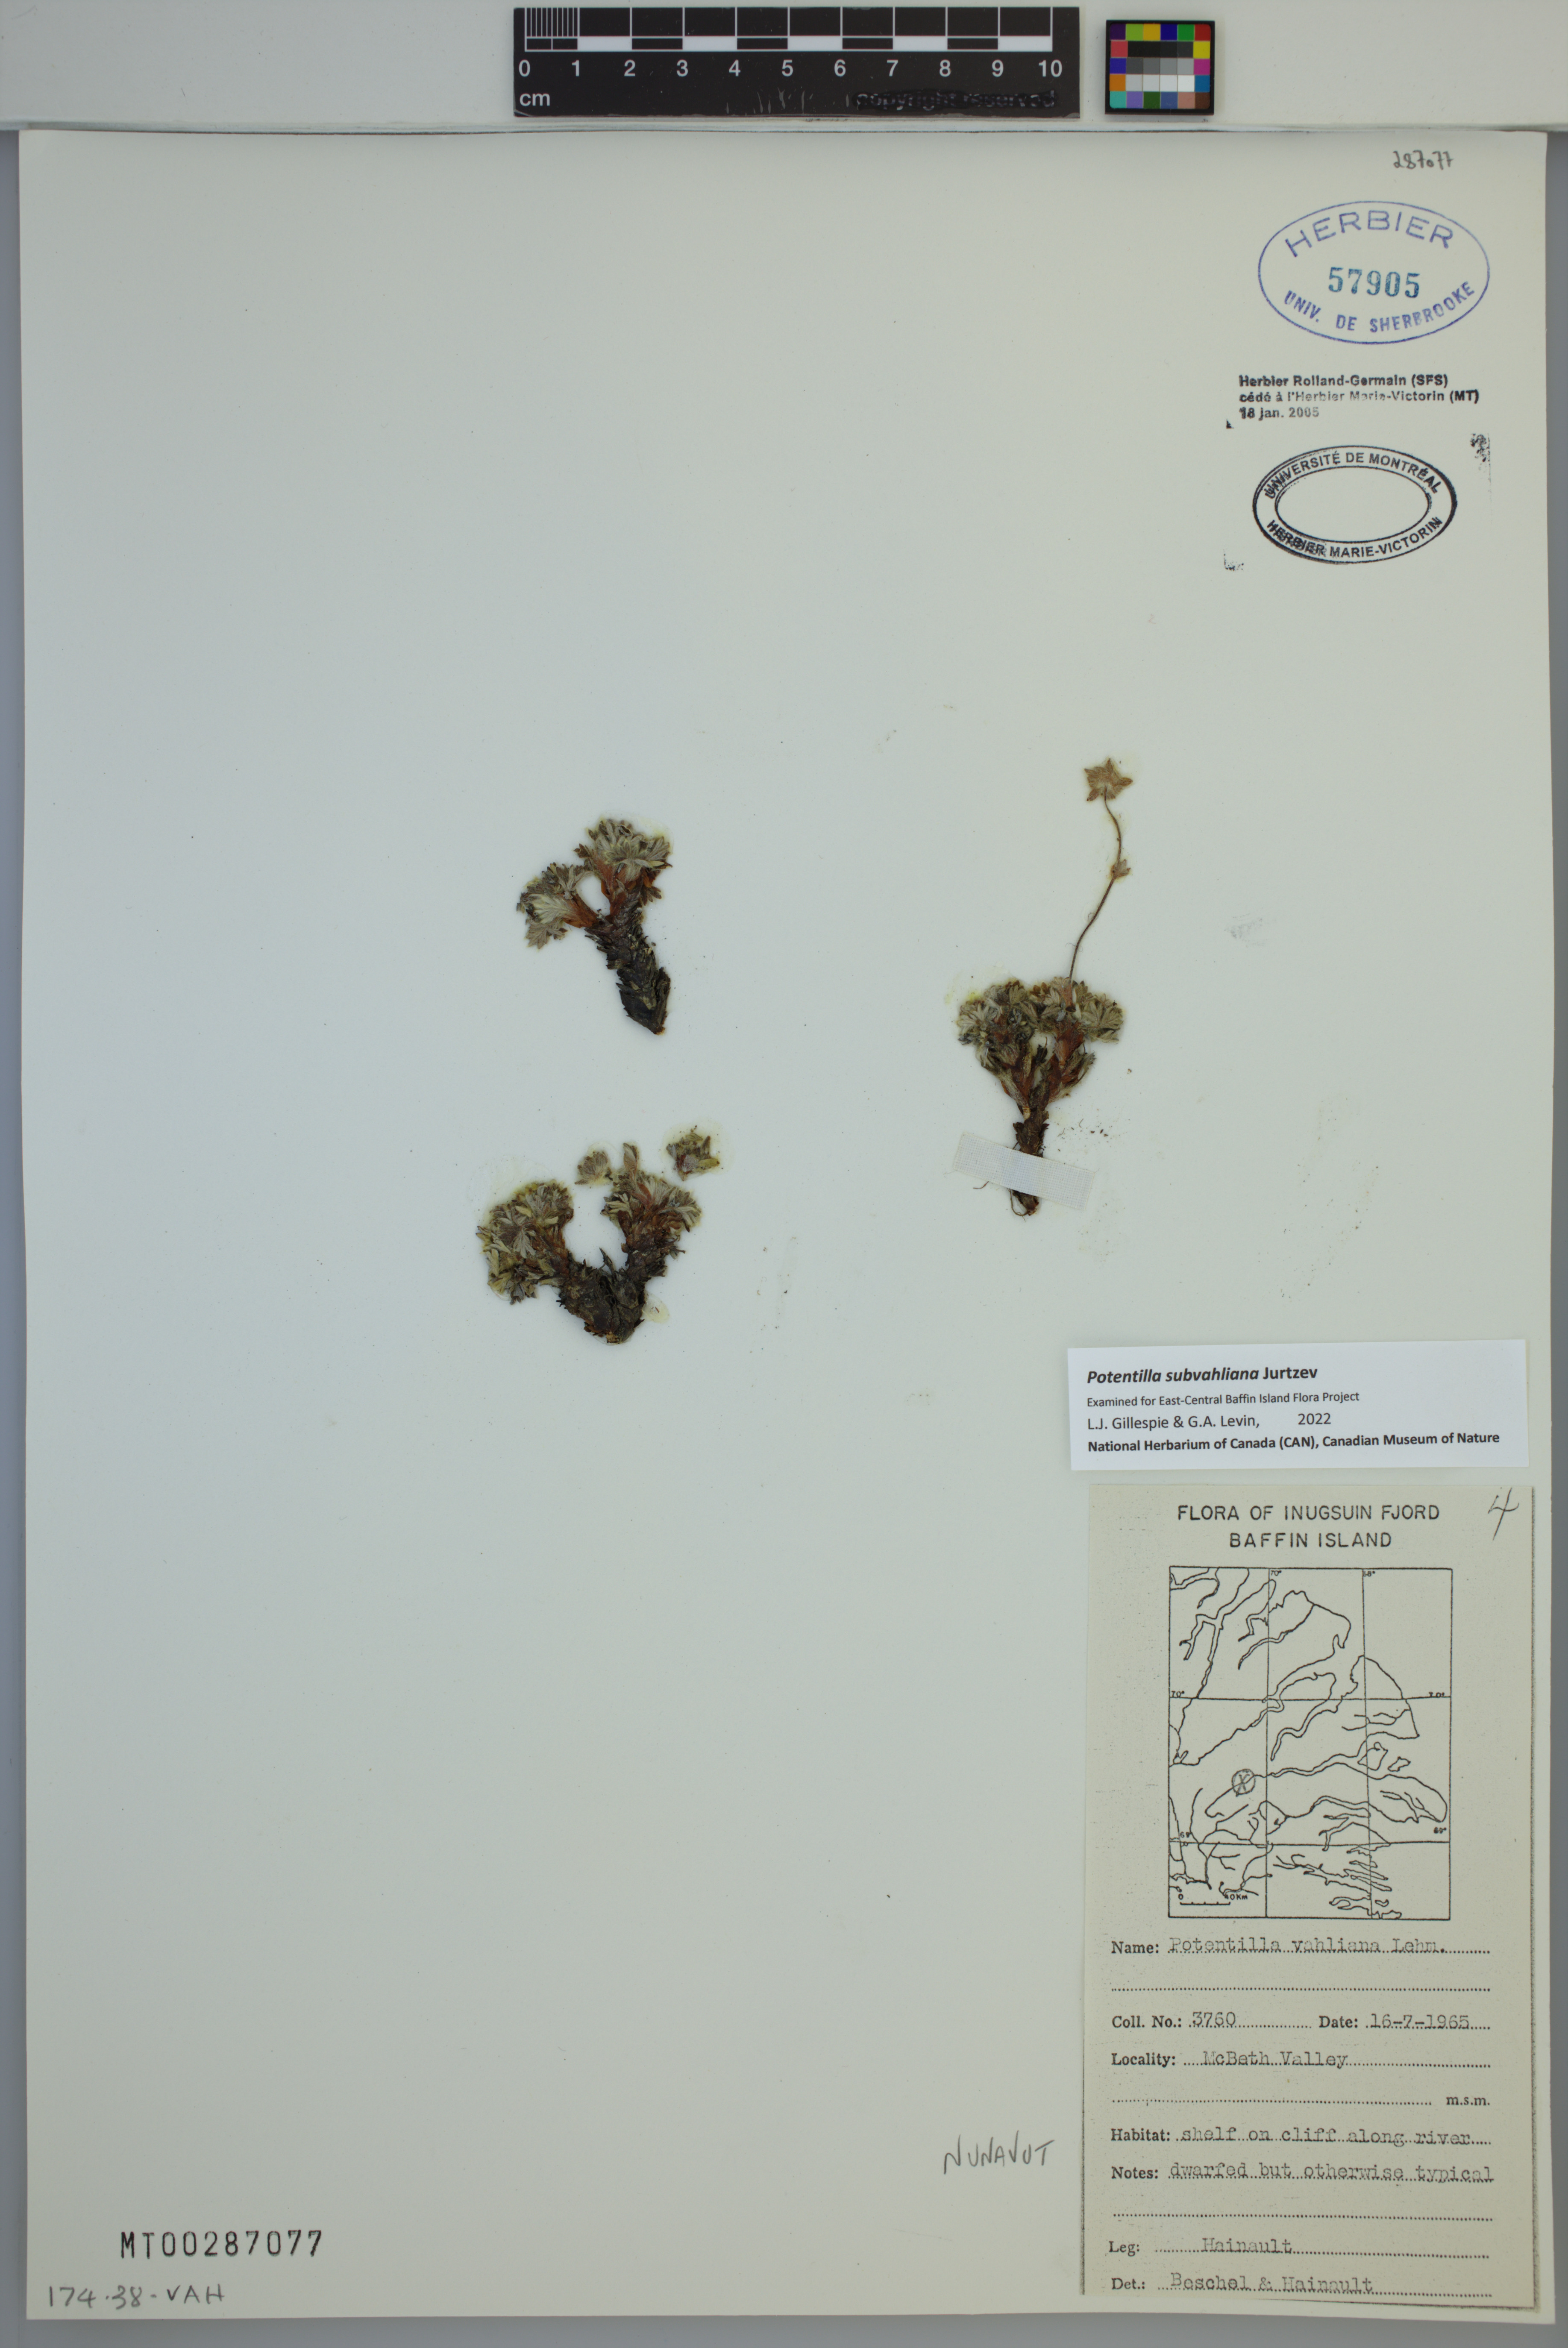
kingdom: Plantae
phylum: Tracheophyta
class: Magnoliopsida
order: Rosales
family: Rosaceae
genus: Potentilla
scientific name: Potentilla subvahliana
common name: Far northern cinquefoil
